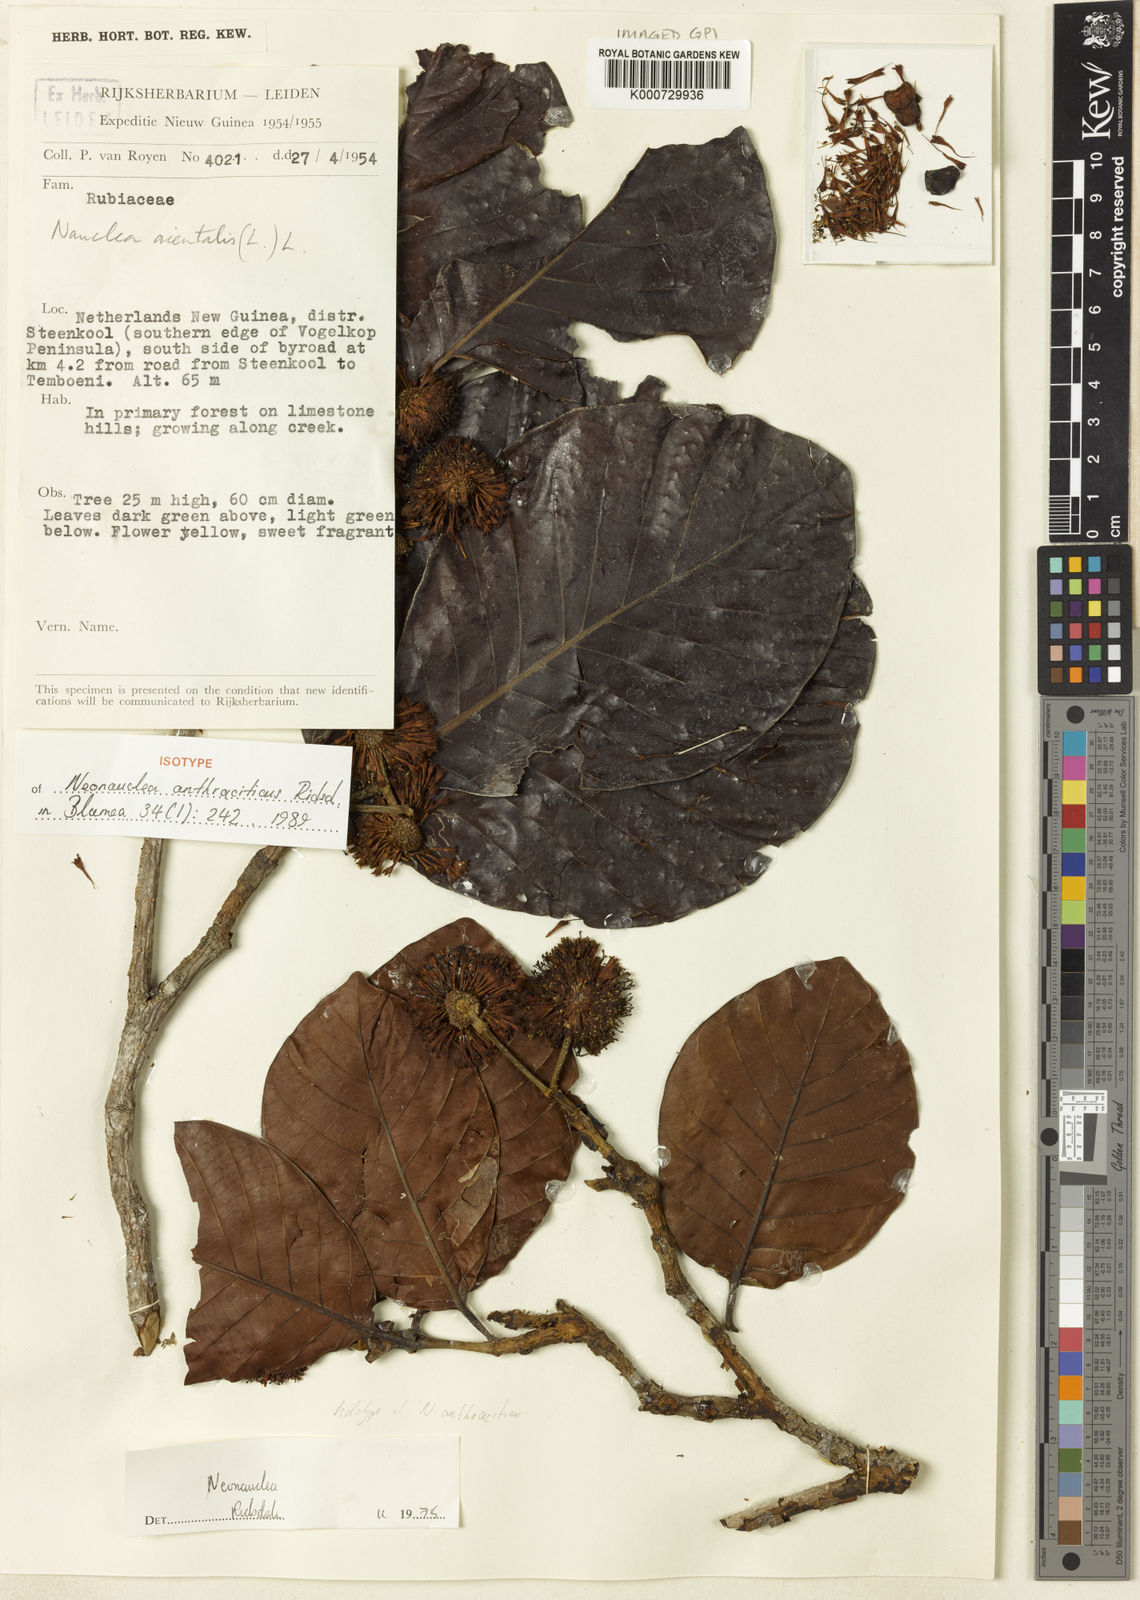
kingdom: Plantae
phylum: Tracheophyta
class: Magnoliopsida
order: Gentianales
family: Rubiaceae
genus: Neonauclea
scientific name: Neonauclea anthraciticus
